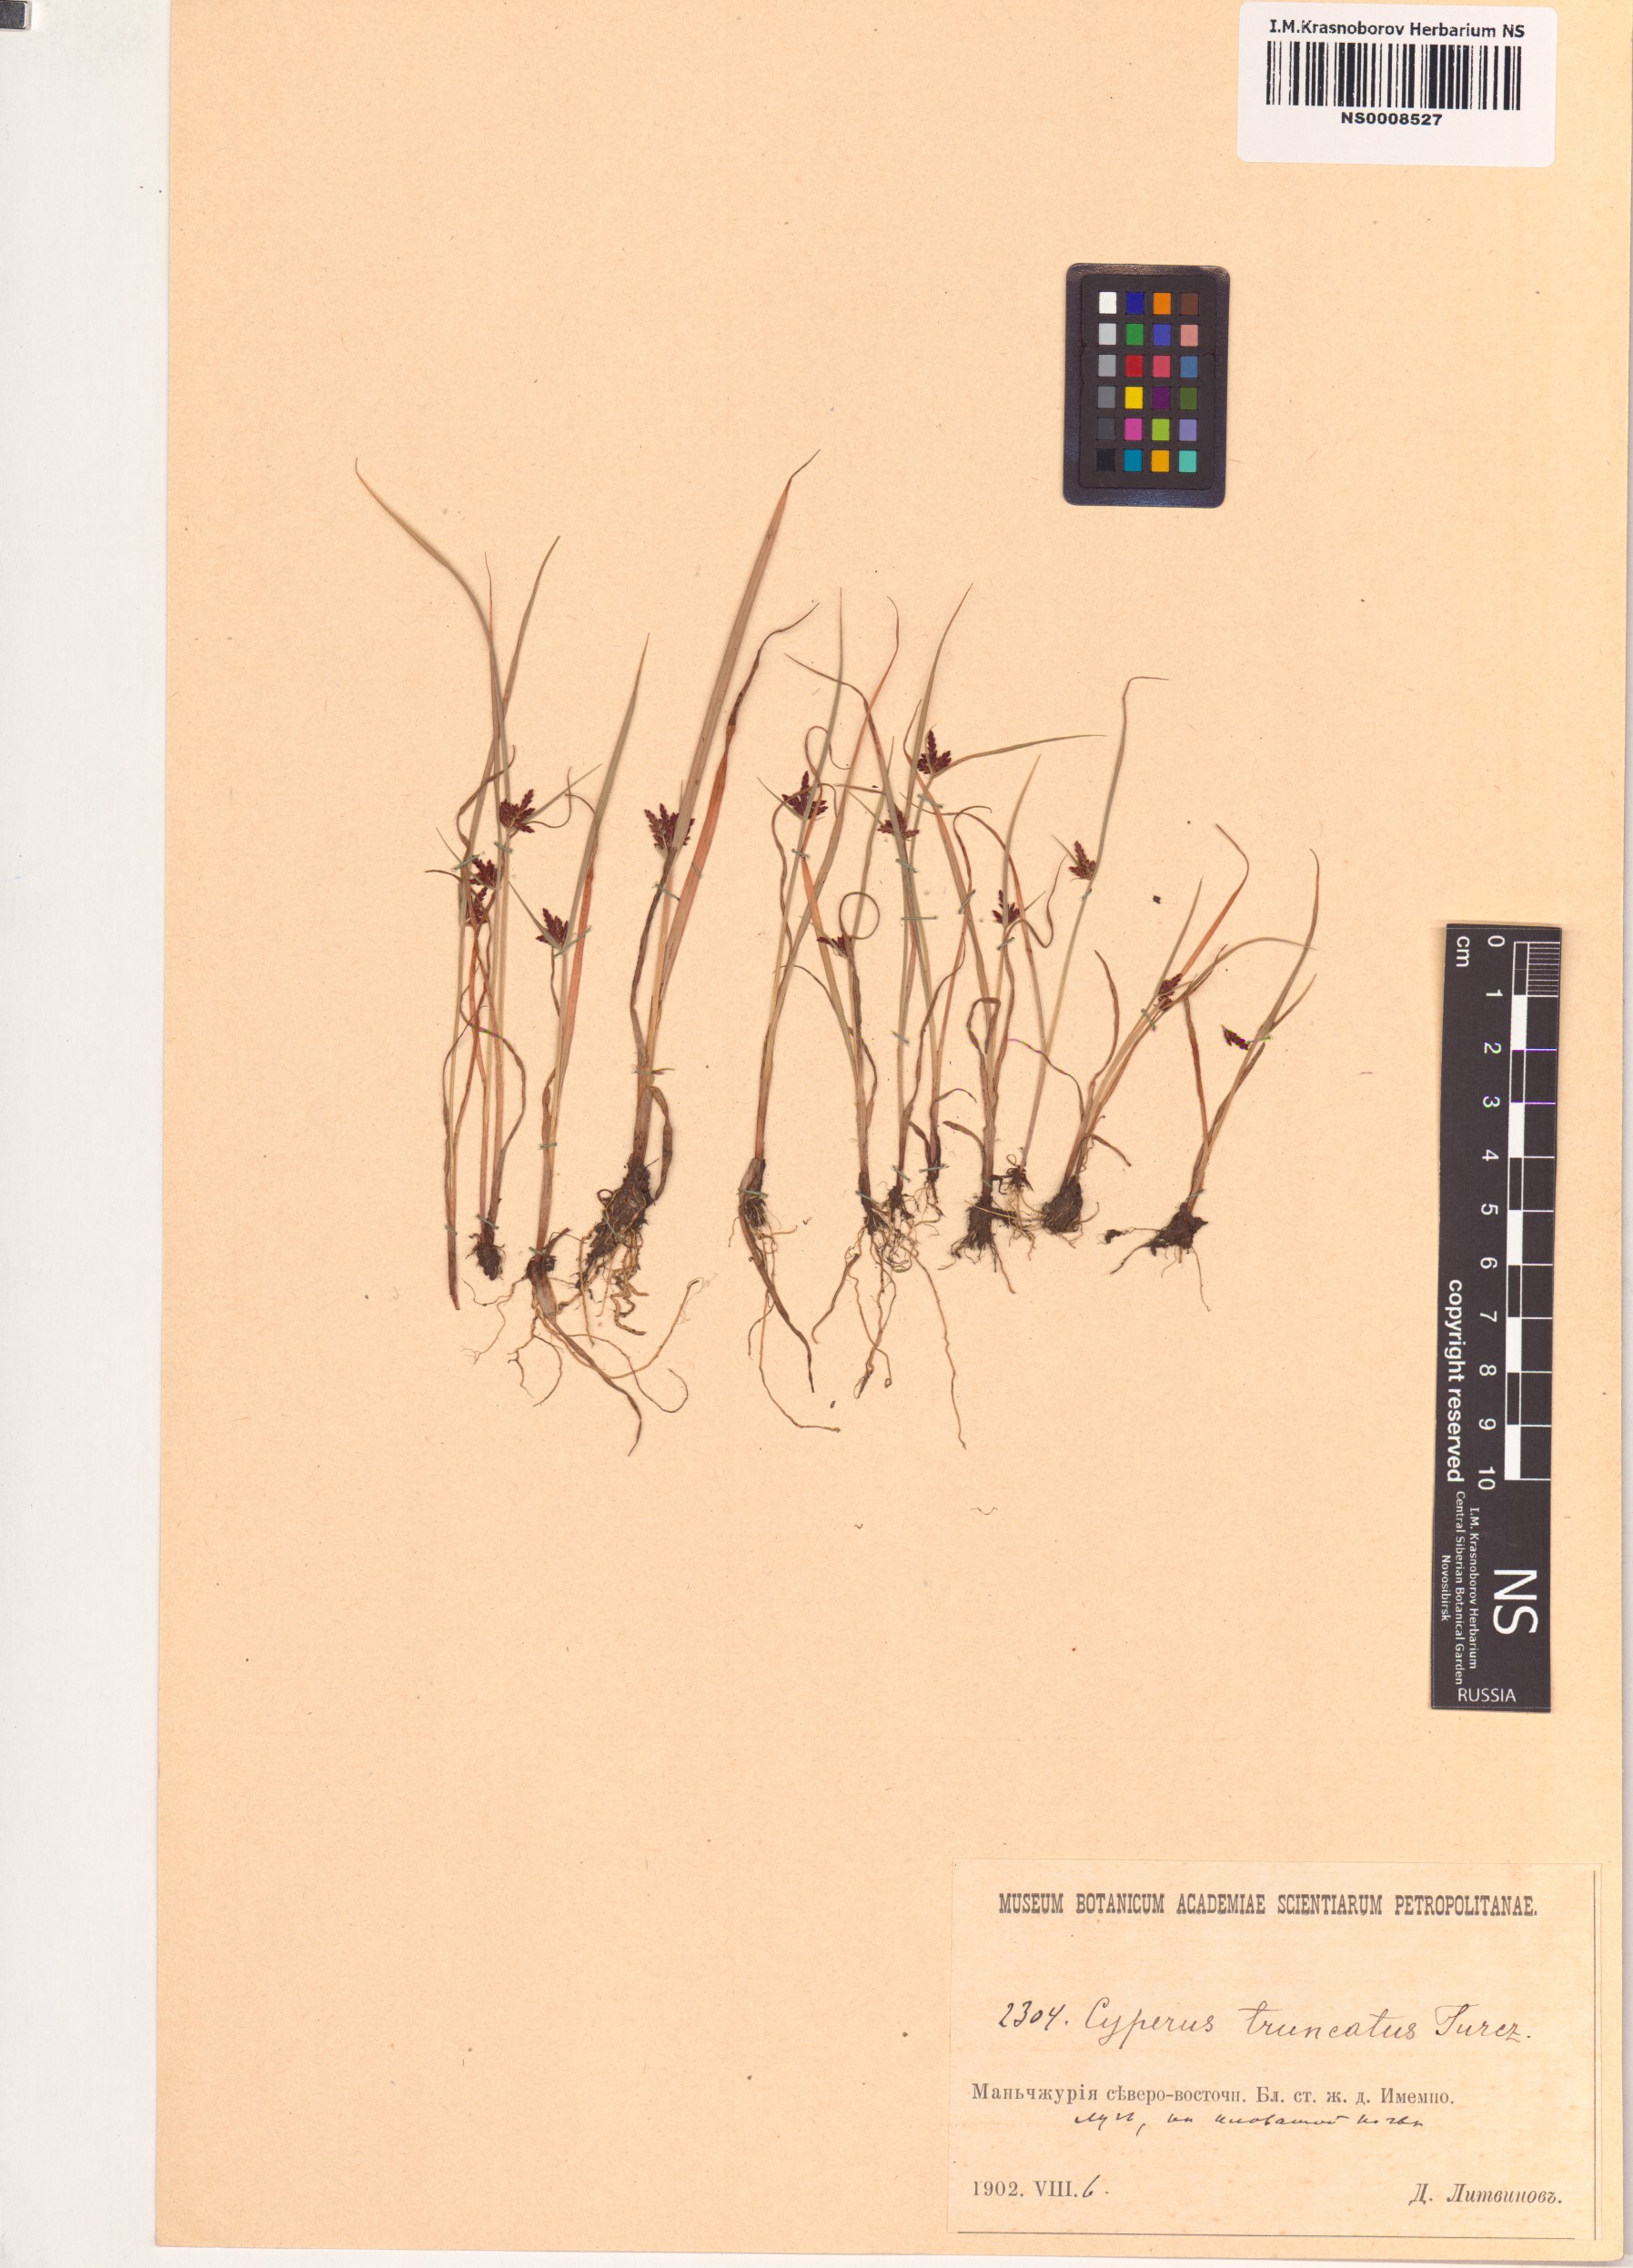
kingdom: Plantae
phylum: Tracheophyta
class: Liliopsida
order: Poales
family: Cyperaceae
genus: Cyperus
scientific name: Cyperus schimperianus
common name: Schimper flatsedge
